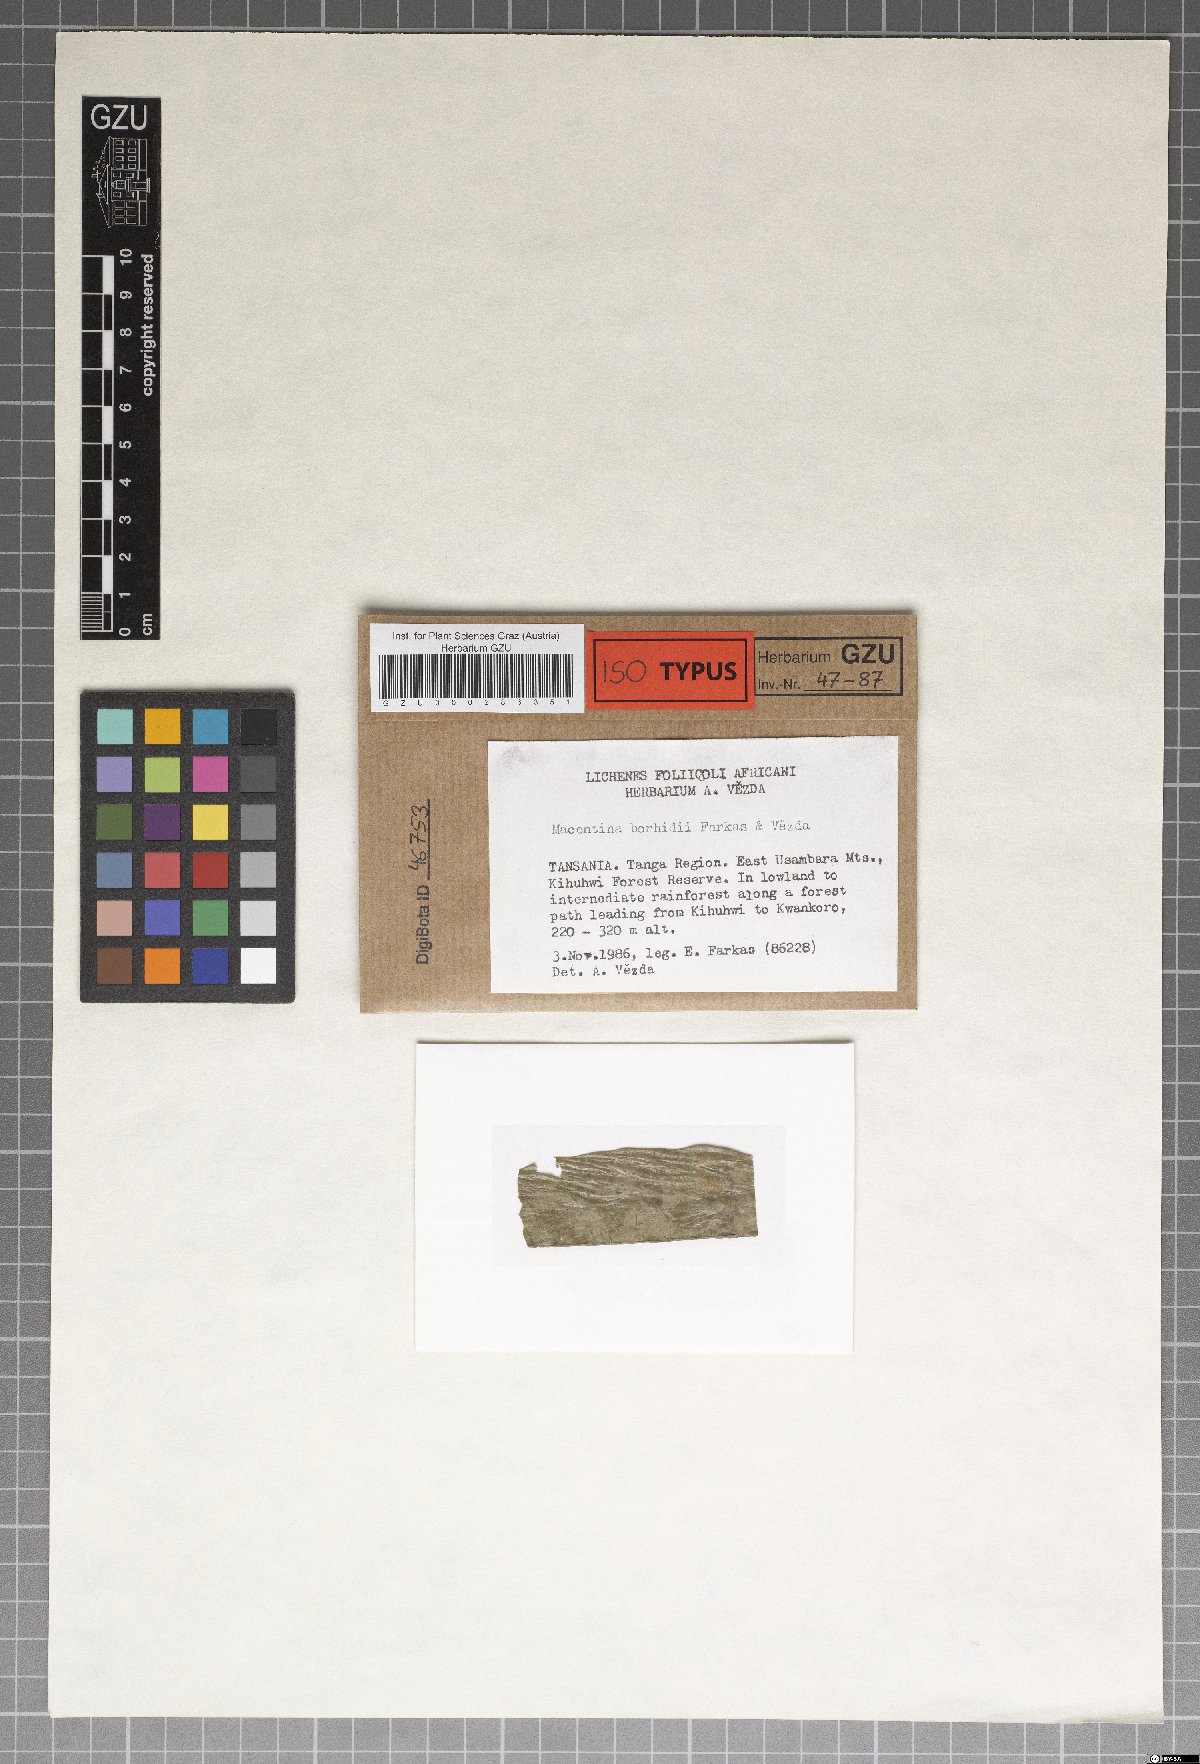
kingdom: Fungi
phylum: Ascomycota
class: Eurotiomycetes
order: Verrucariales
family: Verrucariaceae
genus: Phylloblastia
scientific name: Phylloblastia borhidii
